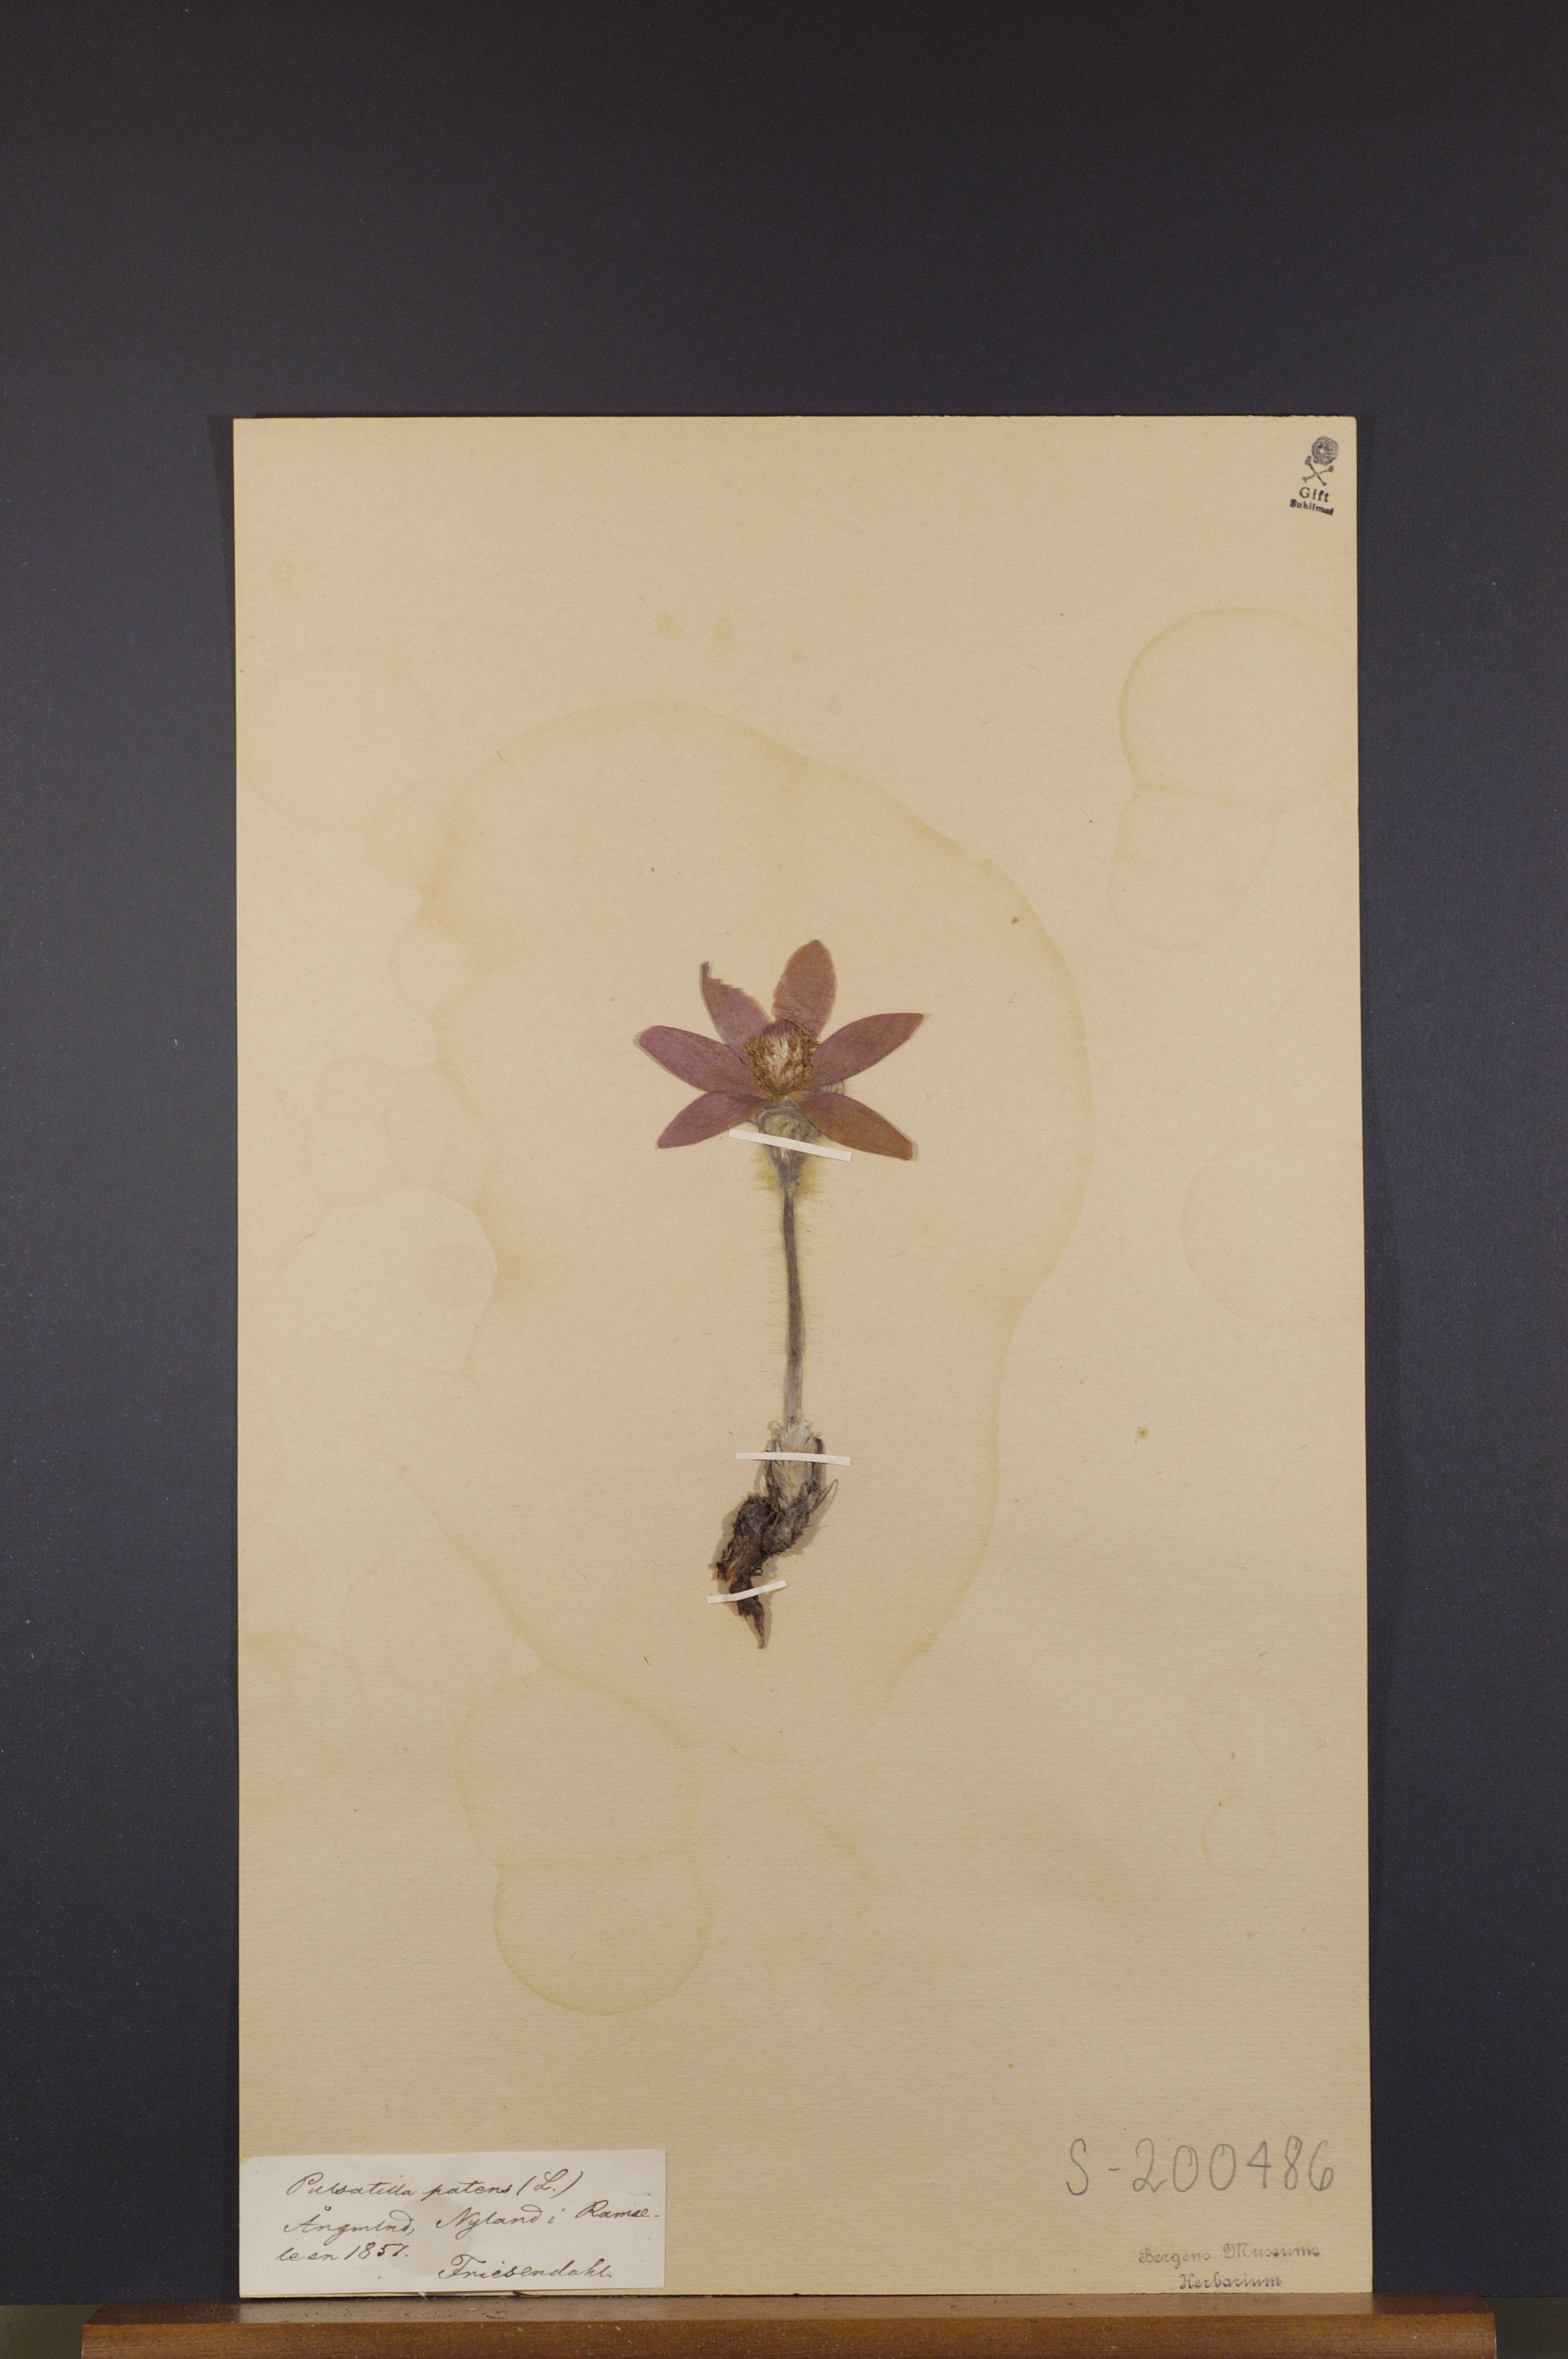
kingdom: Plantae
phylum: Tracheophyta
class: Magnoliopsida
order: Ranunculales
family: Ranunculaceae
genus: Pulsatilla
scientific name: Pulsatilla patens
